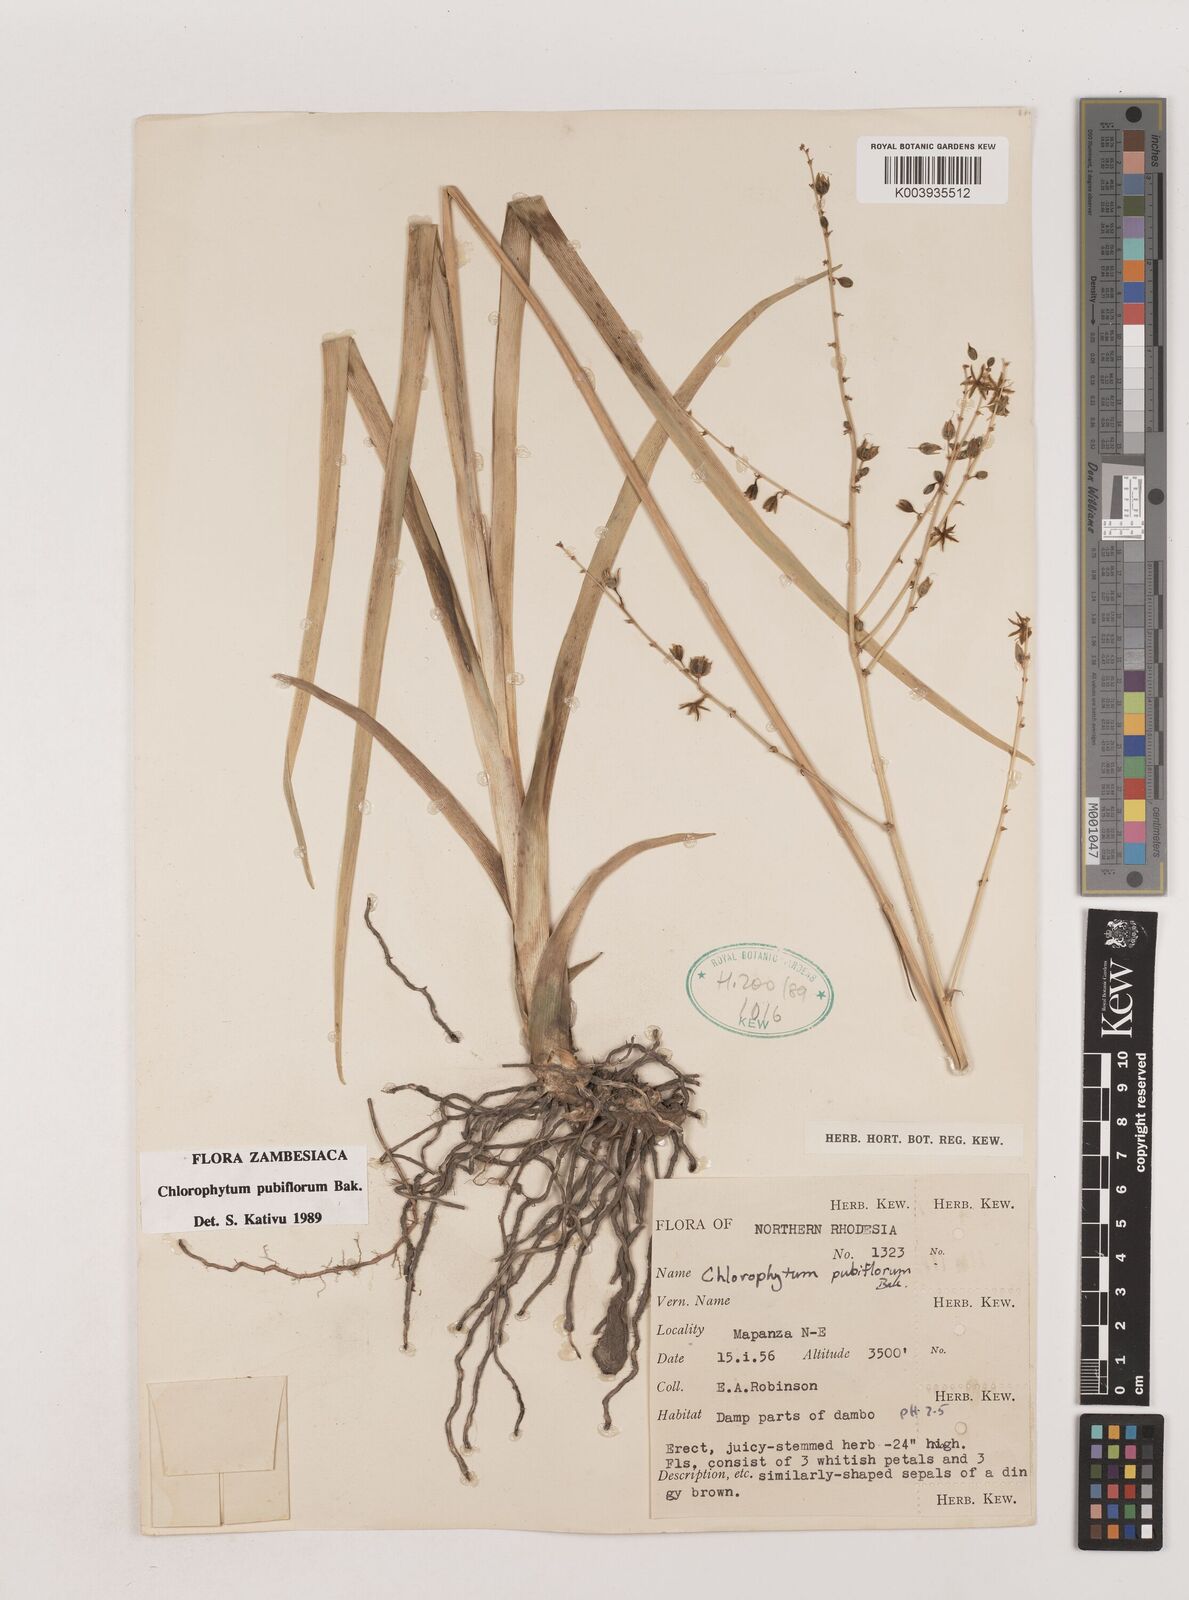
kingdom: Plantae
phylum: Tracheophyta
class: Liliopsida
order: Asparagales
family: Asparagaceae
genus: Chlorophytum
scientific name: Chlorophytum pubiflorum
